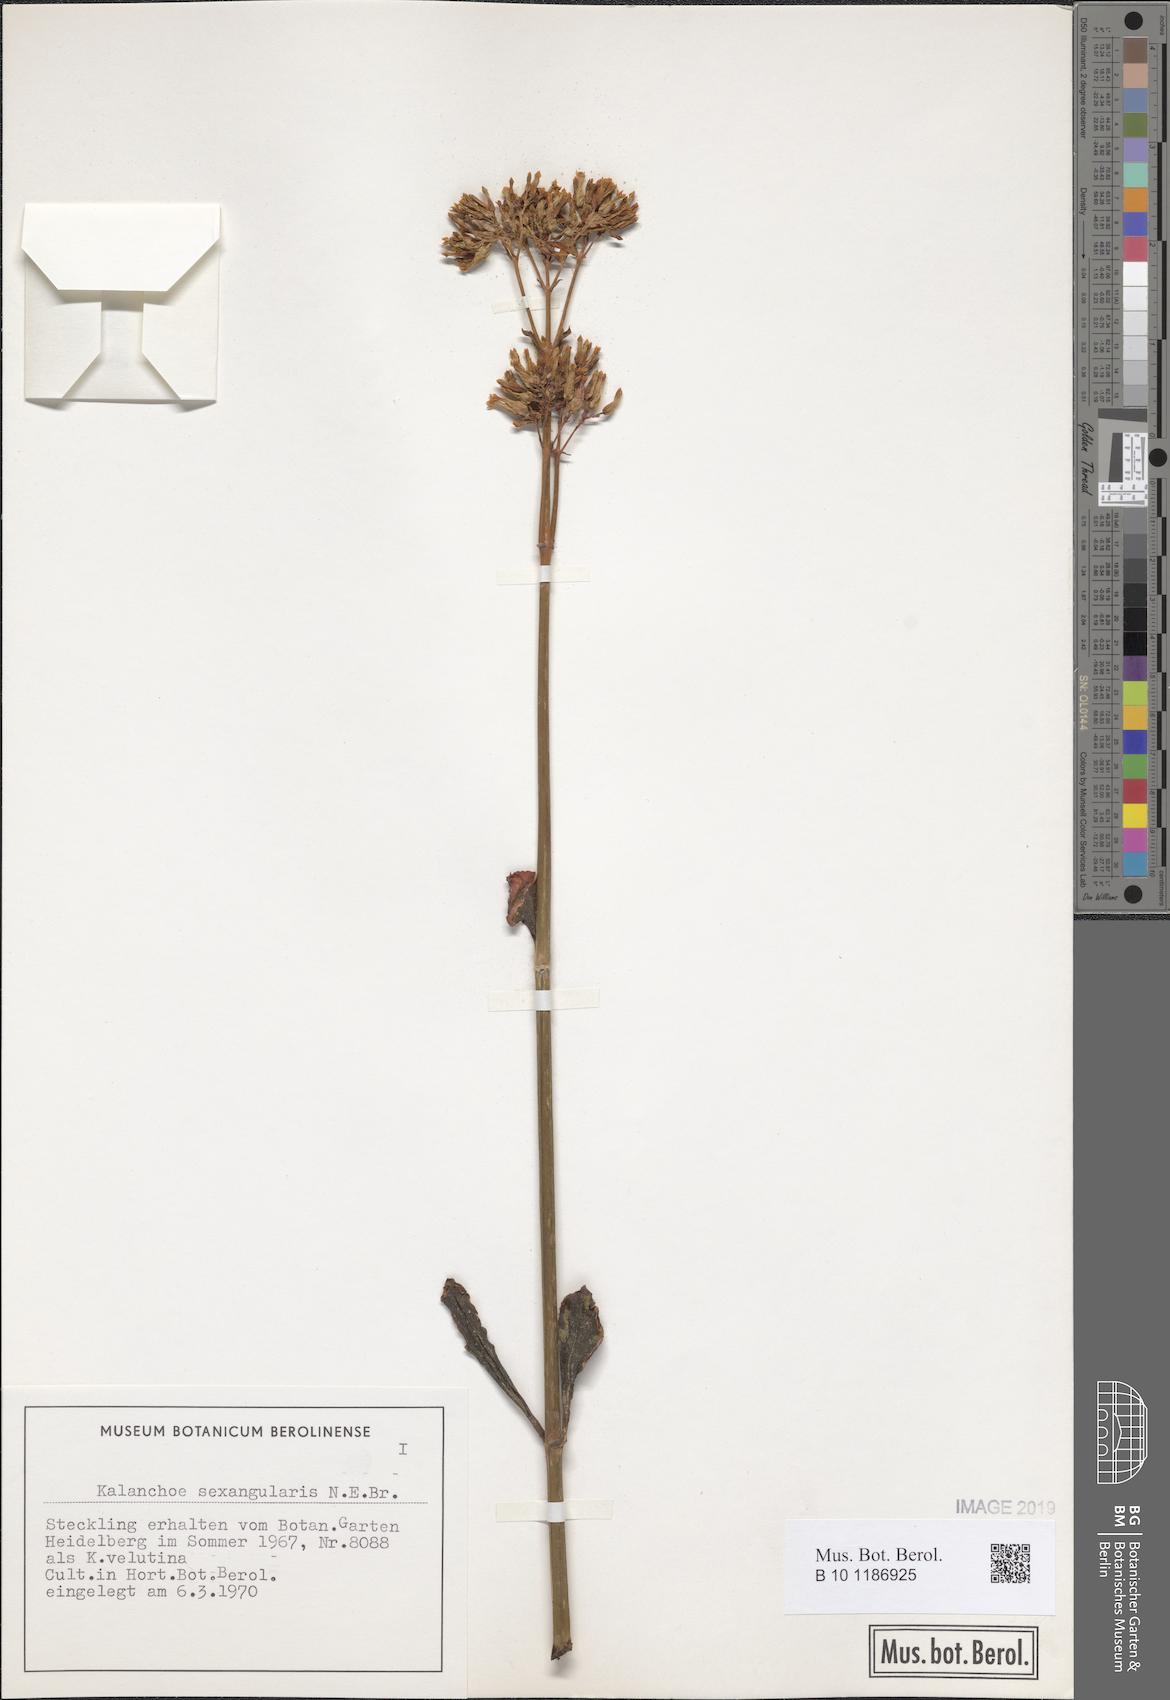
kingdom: Plantae
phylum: Tracheophyta
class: Magnoliopsida
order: Saxifragales
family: Crassulaceae
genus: Kalanchoe
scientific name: Kalanchoe sexangularis
